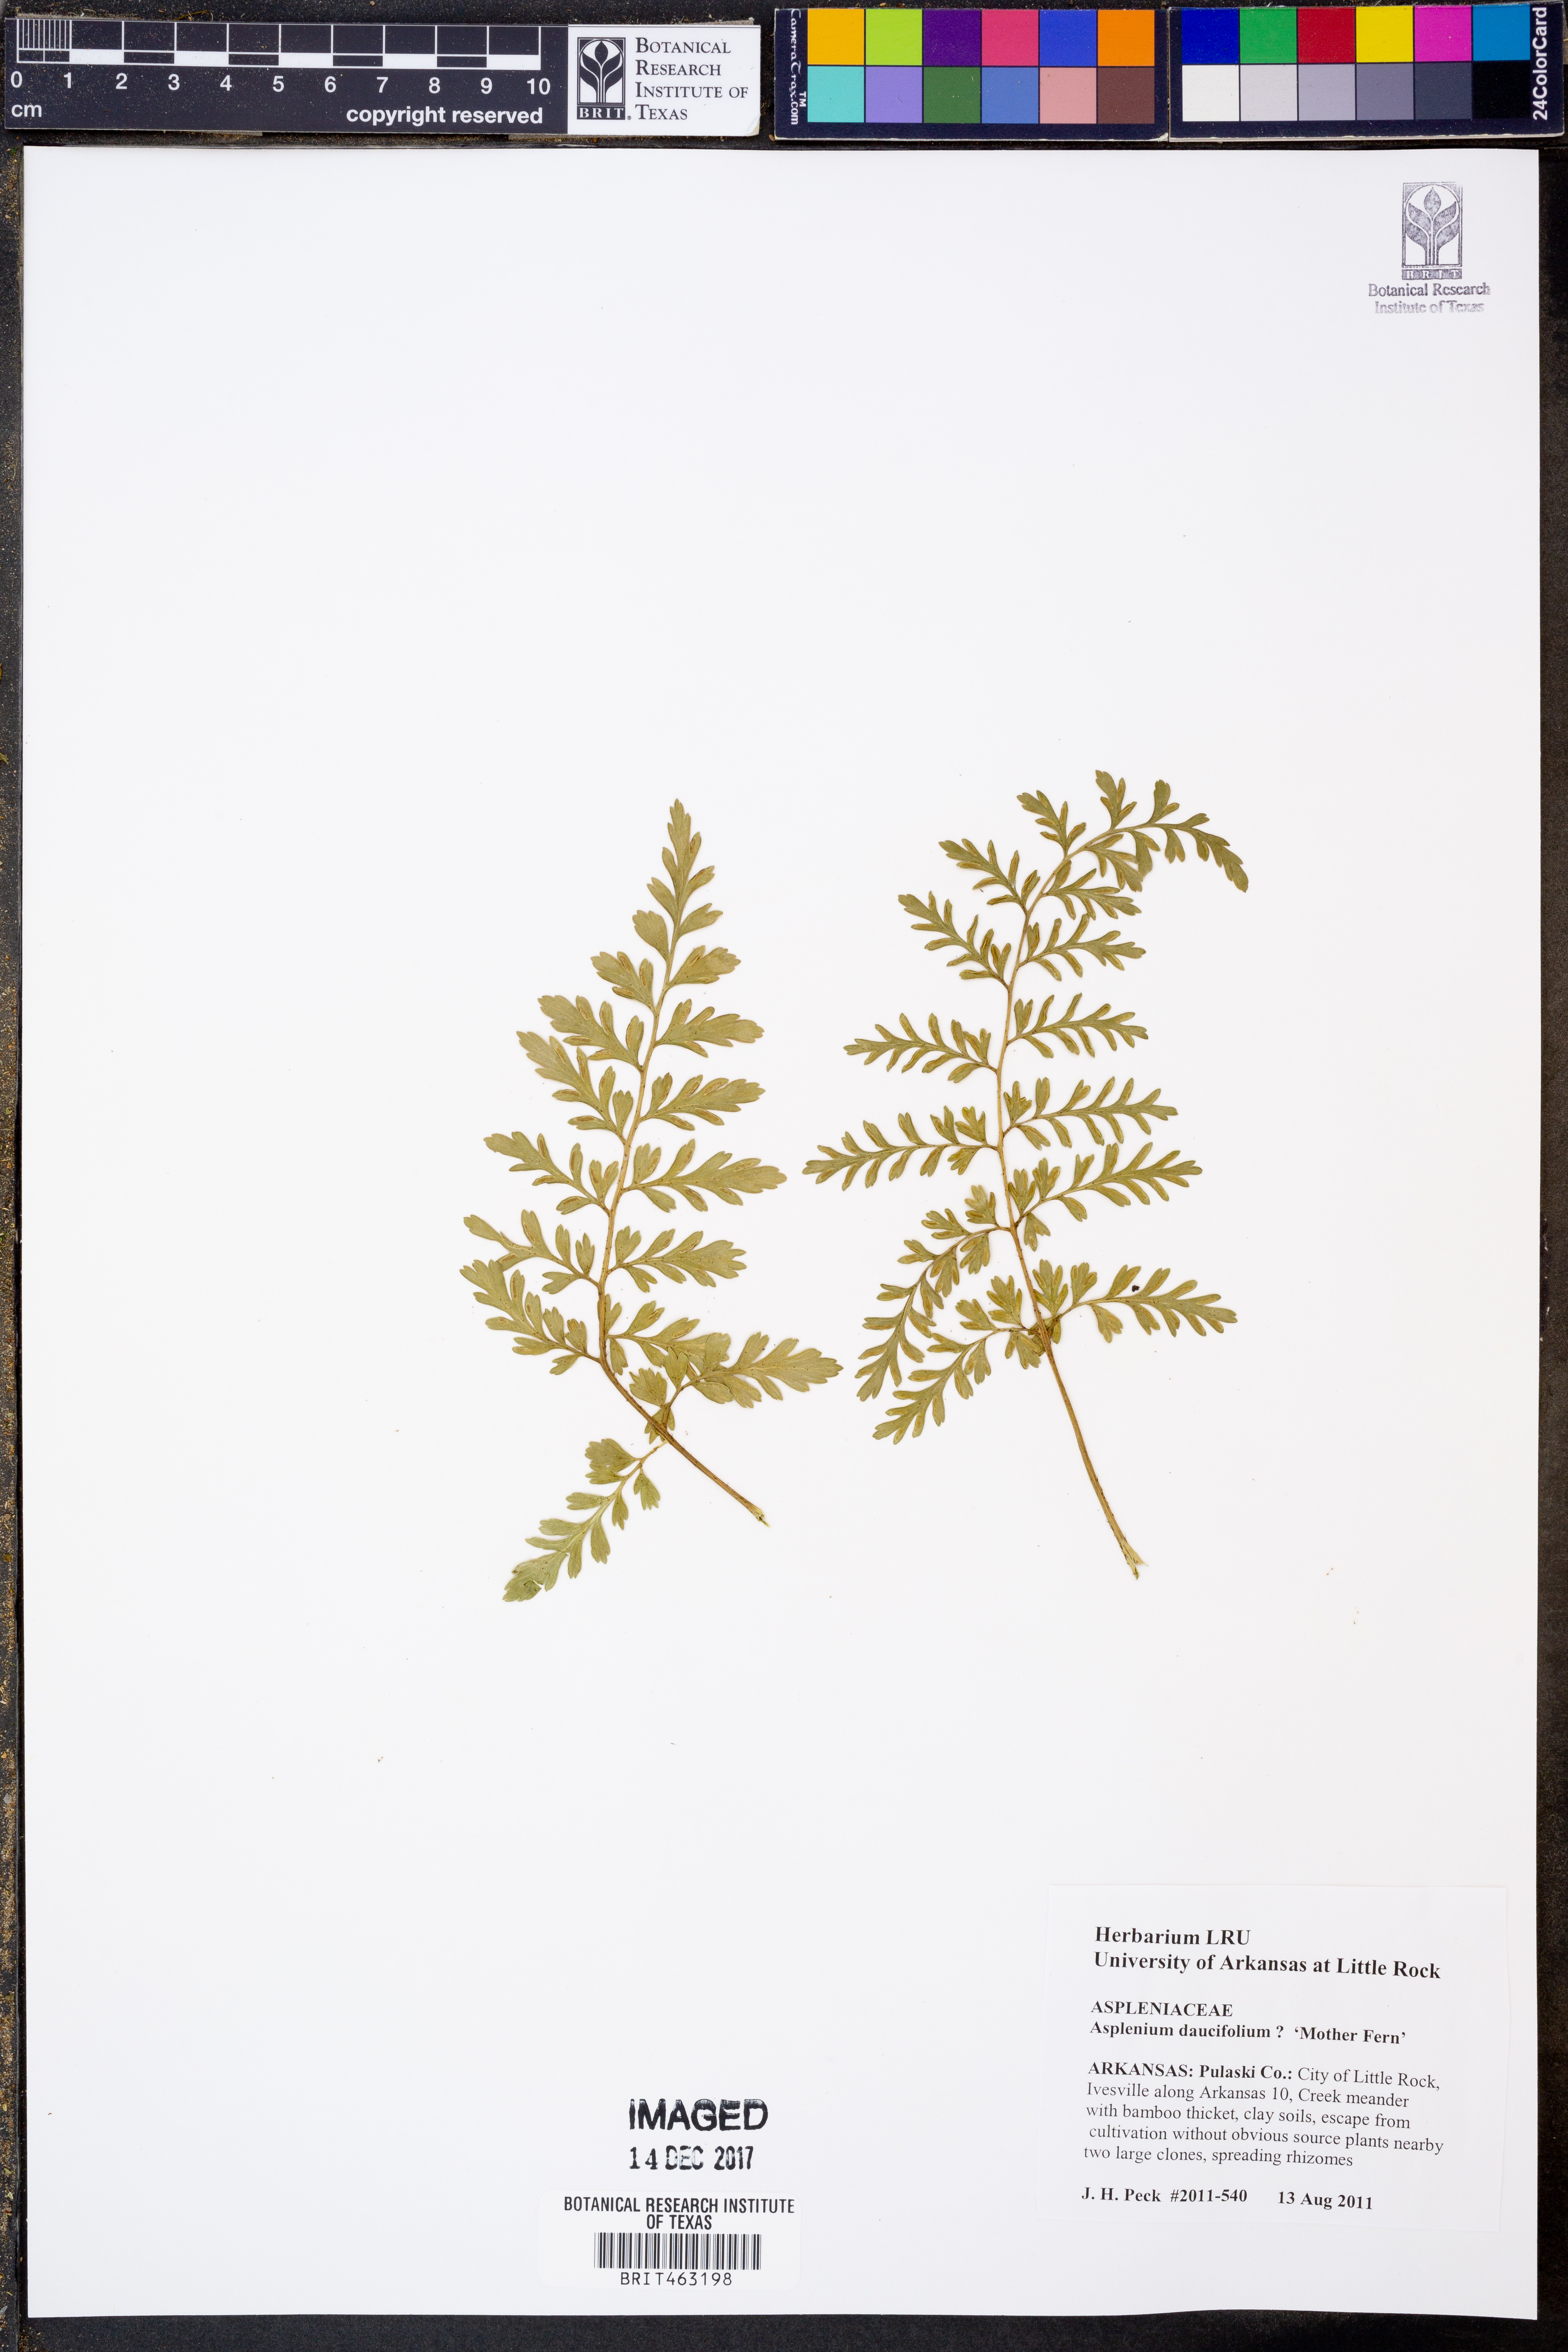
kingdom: Plantae
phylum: Tracheophyta
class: Polypodiopsida
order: Polypodiales
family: Aspleniaceae
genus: Asplenium
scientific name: Asplenium daucifolium
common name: Mauritius spleenwort
